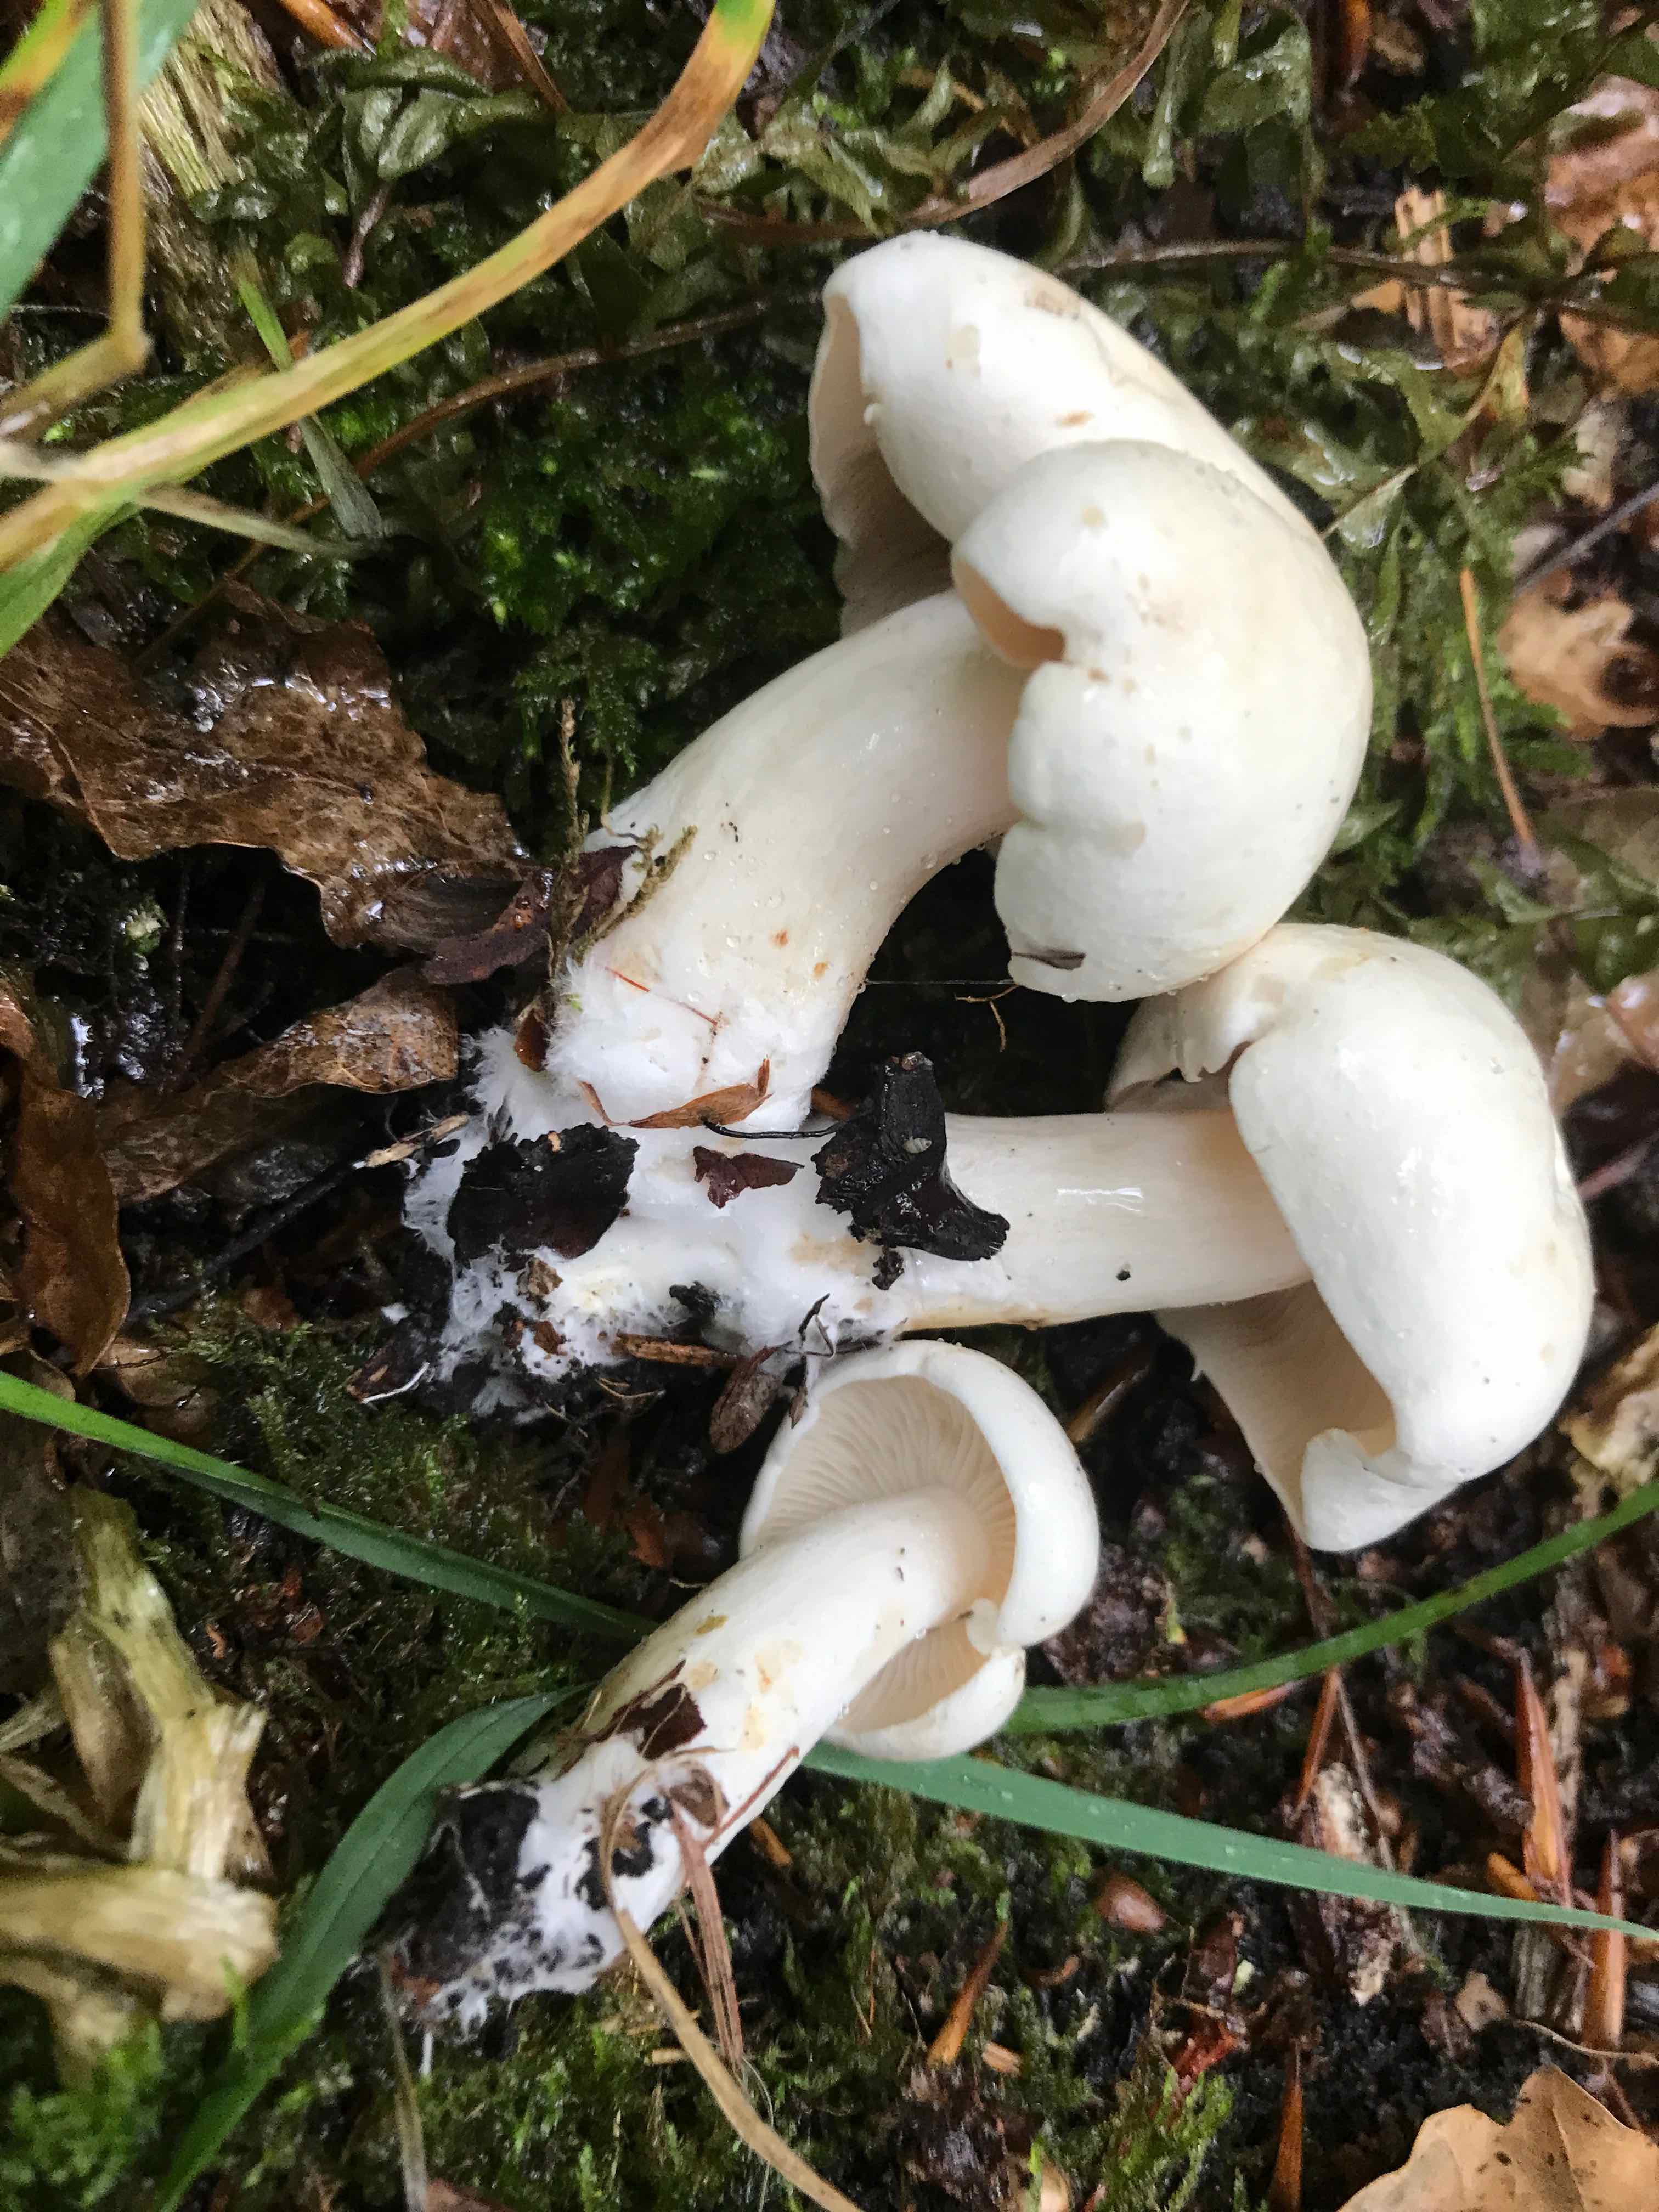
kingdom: Fungi
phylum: Basidiomycota
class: Agaricomycetes
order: Agaricales
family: Tricholomataceae
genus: Tricholoma
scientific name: Tricholoma album
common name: honning-ridderhat
